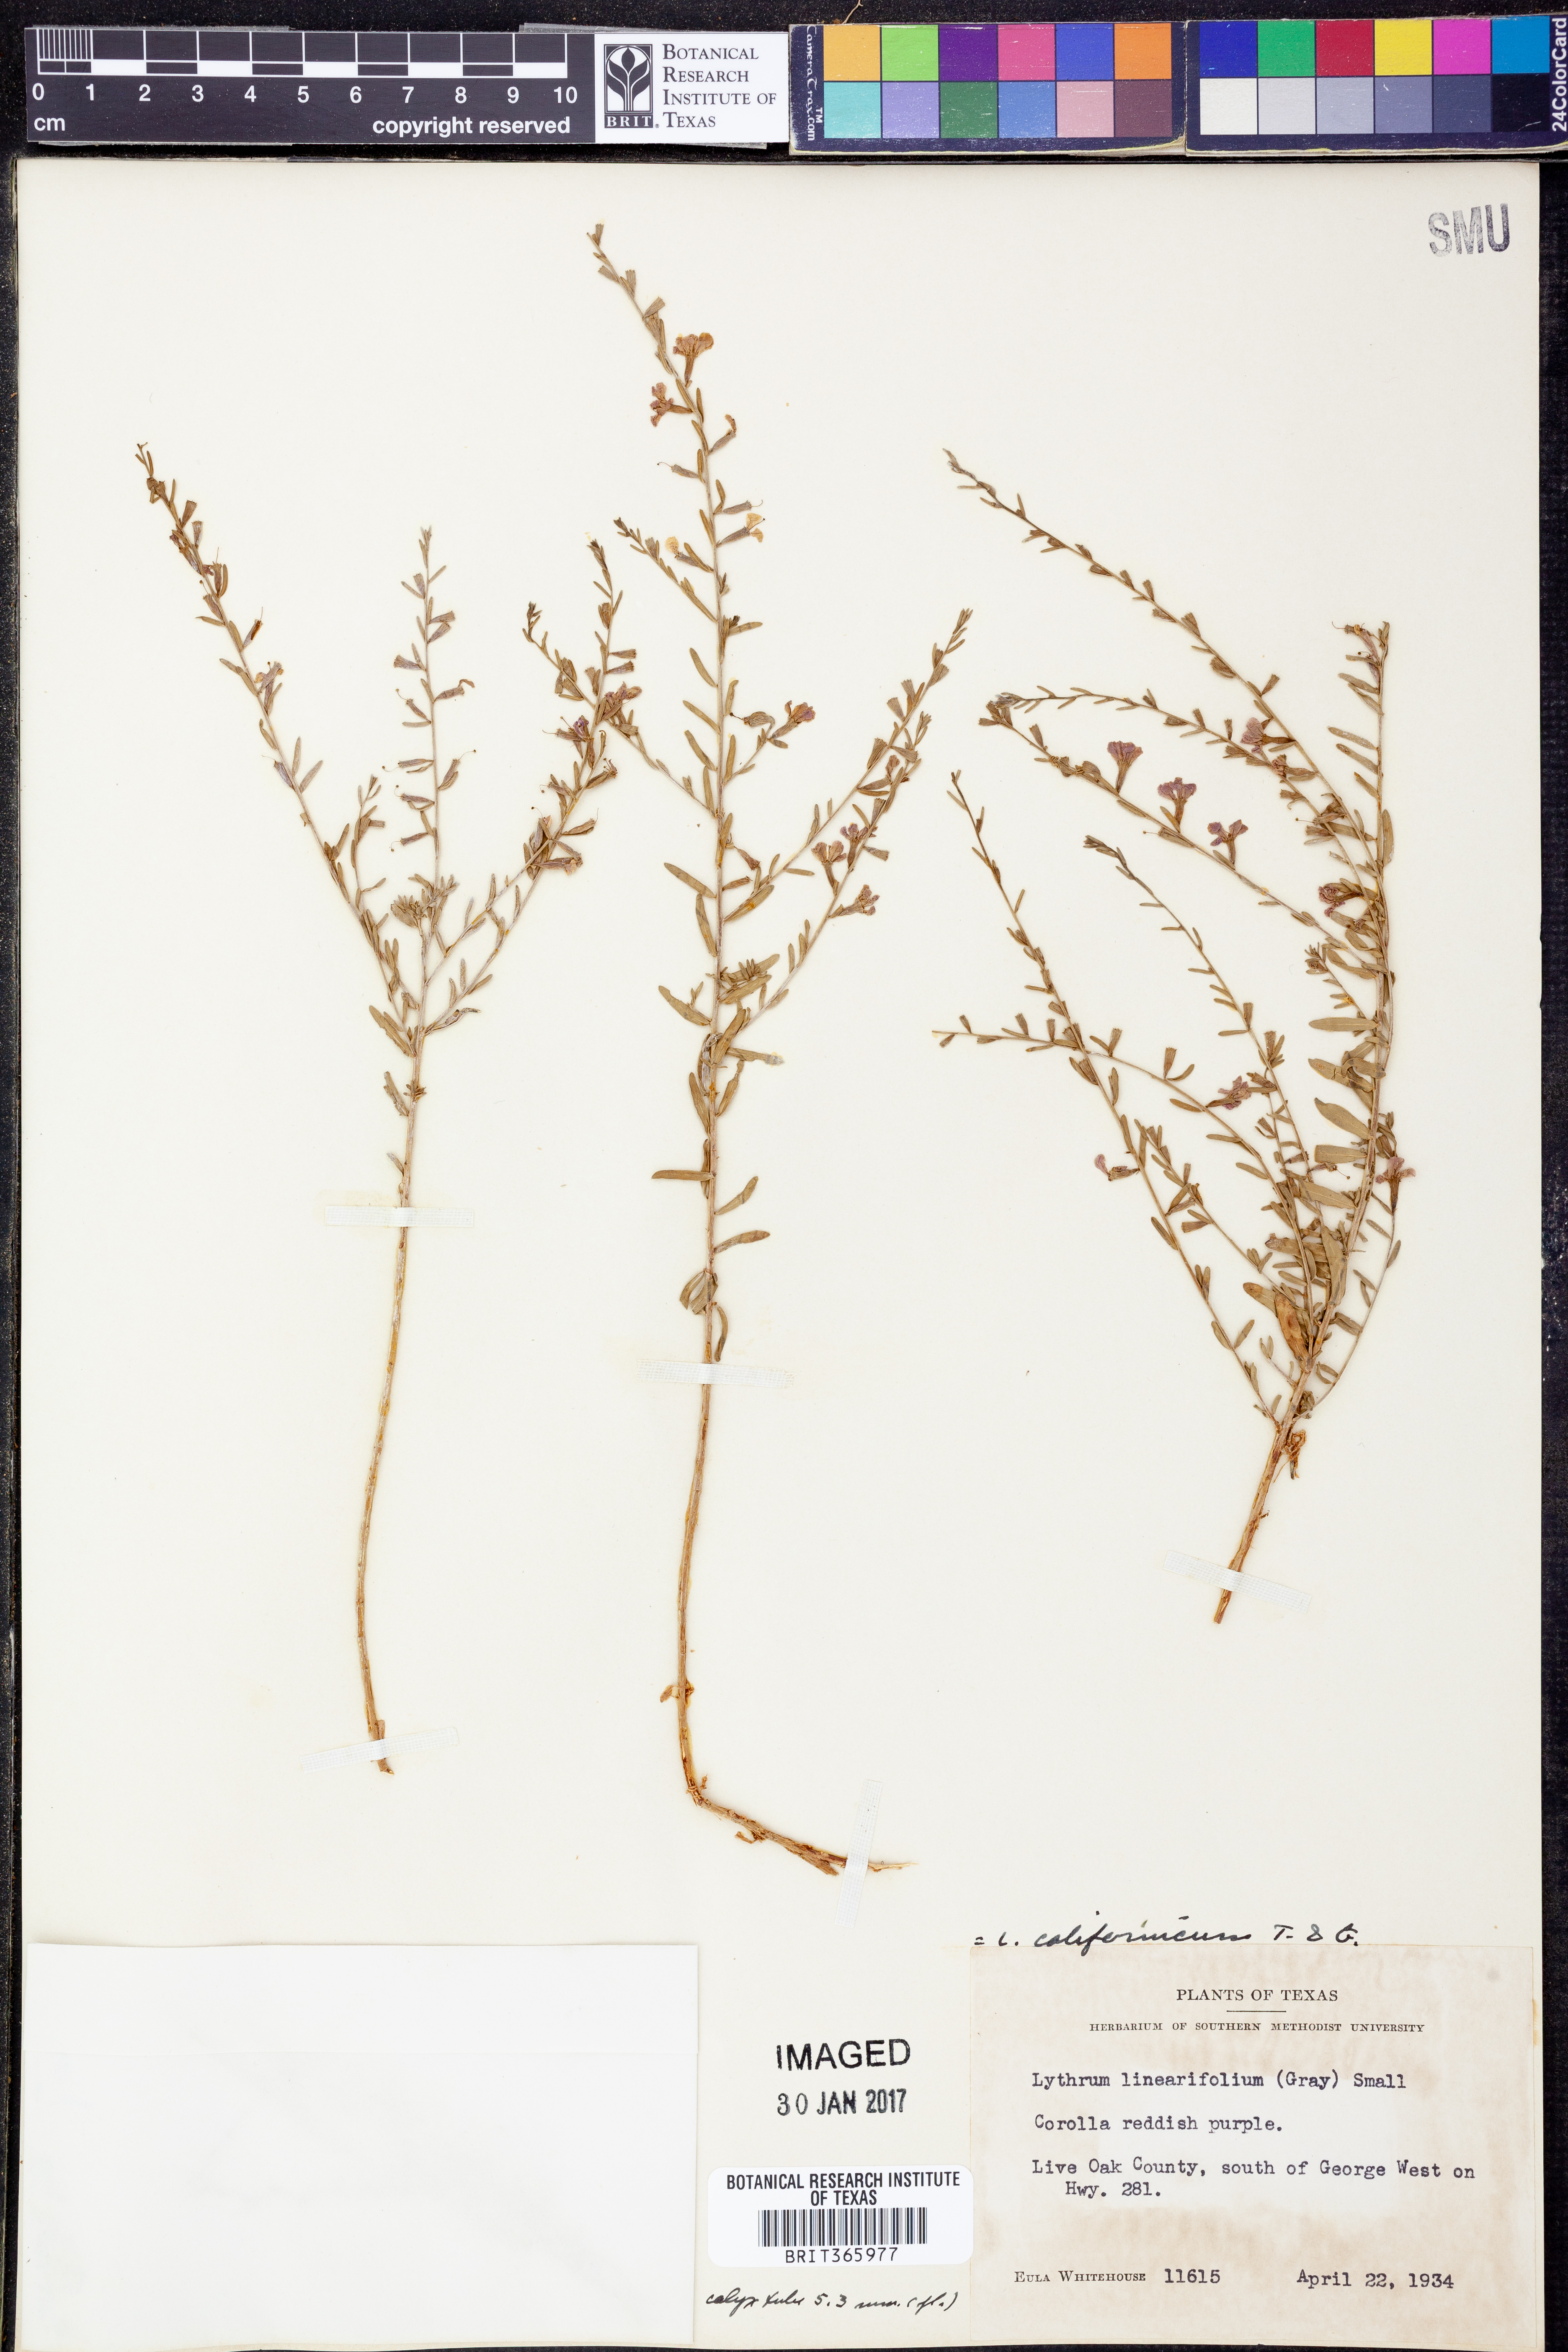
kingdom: Plantae
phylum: Tracheophyta
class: Magnoliopsida
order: Myrtales
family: Lythraceae
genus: Lythrum
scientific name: Lythrum californicum
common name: California loosestrife
